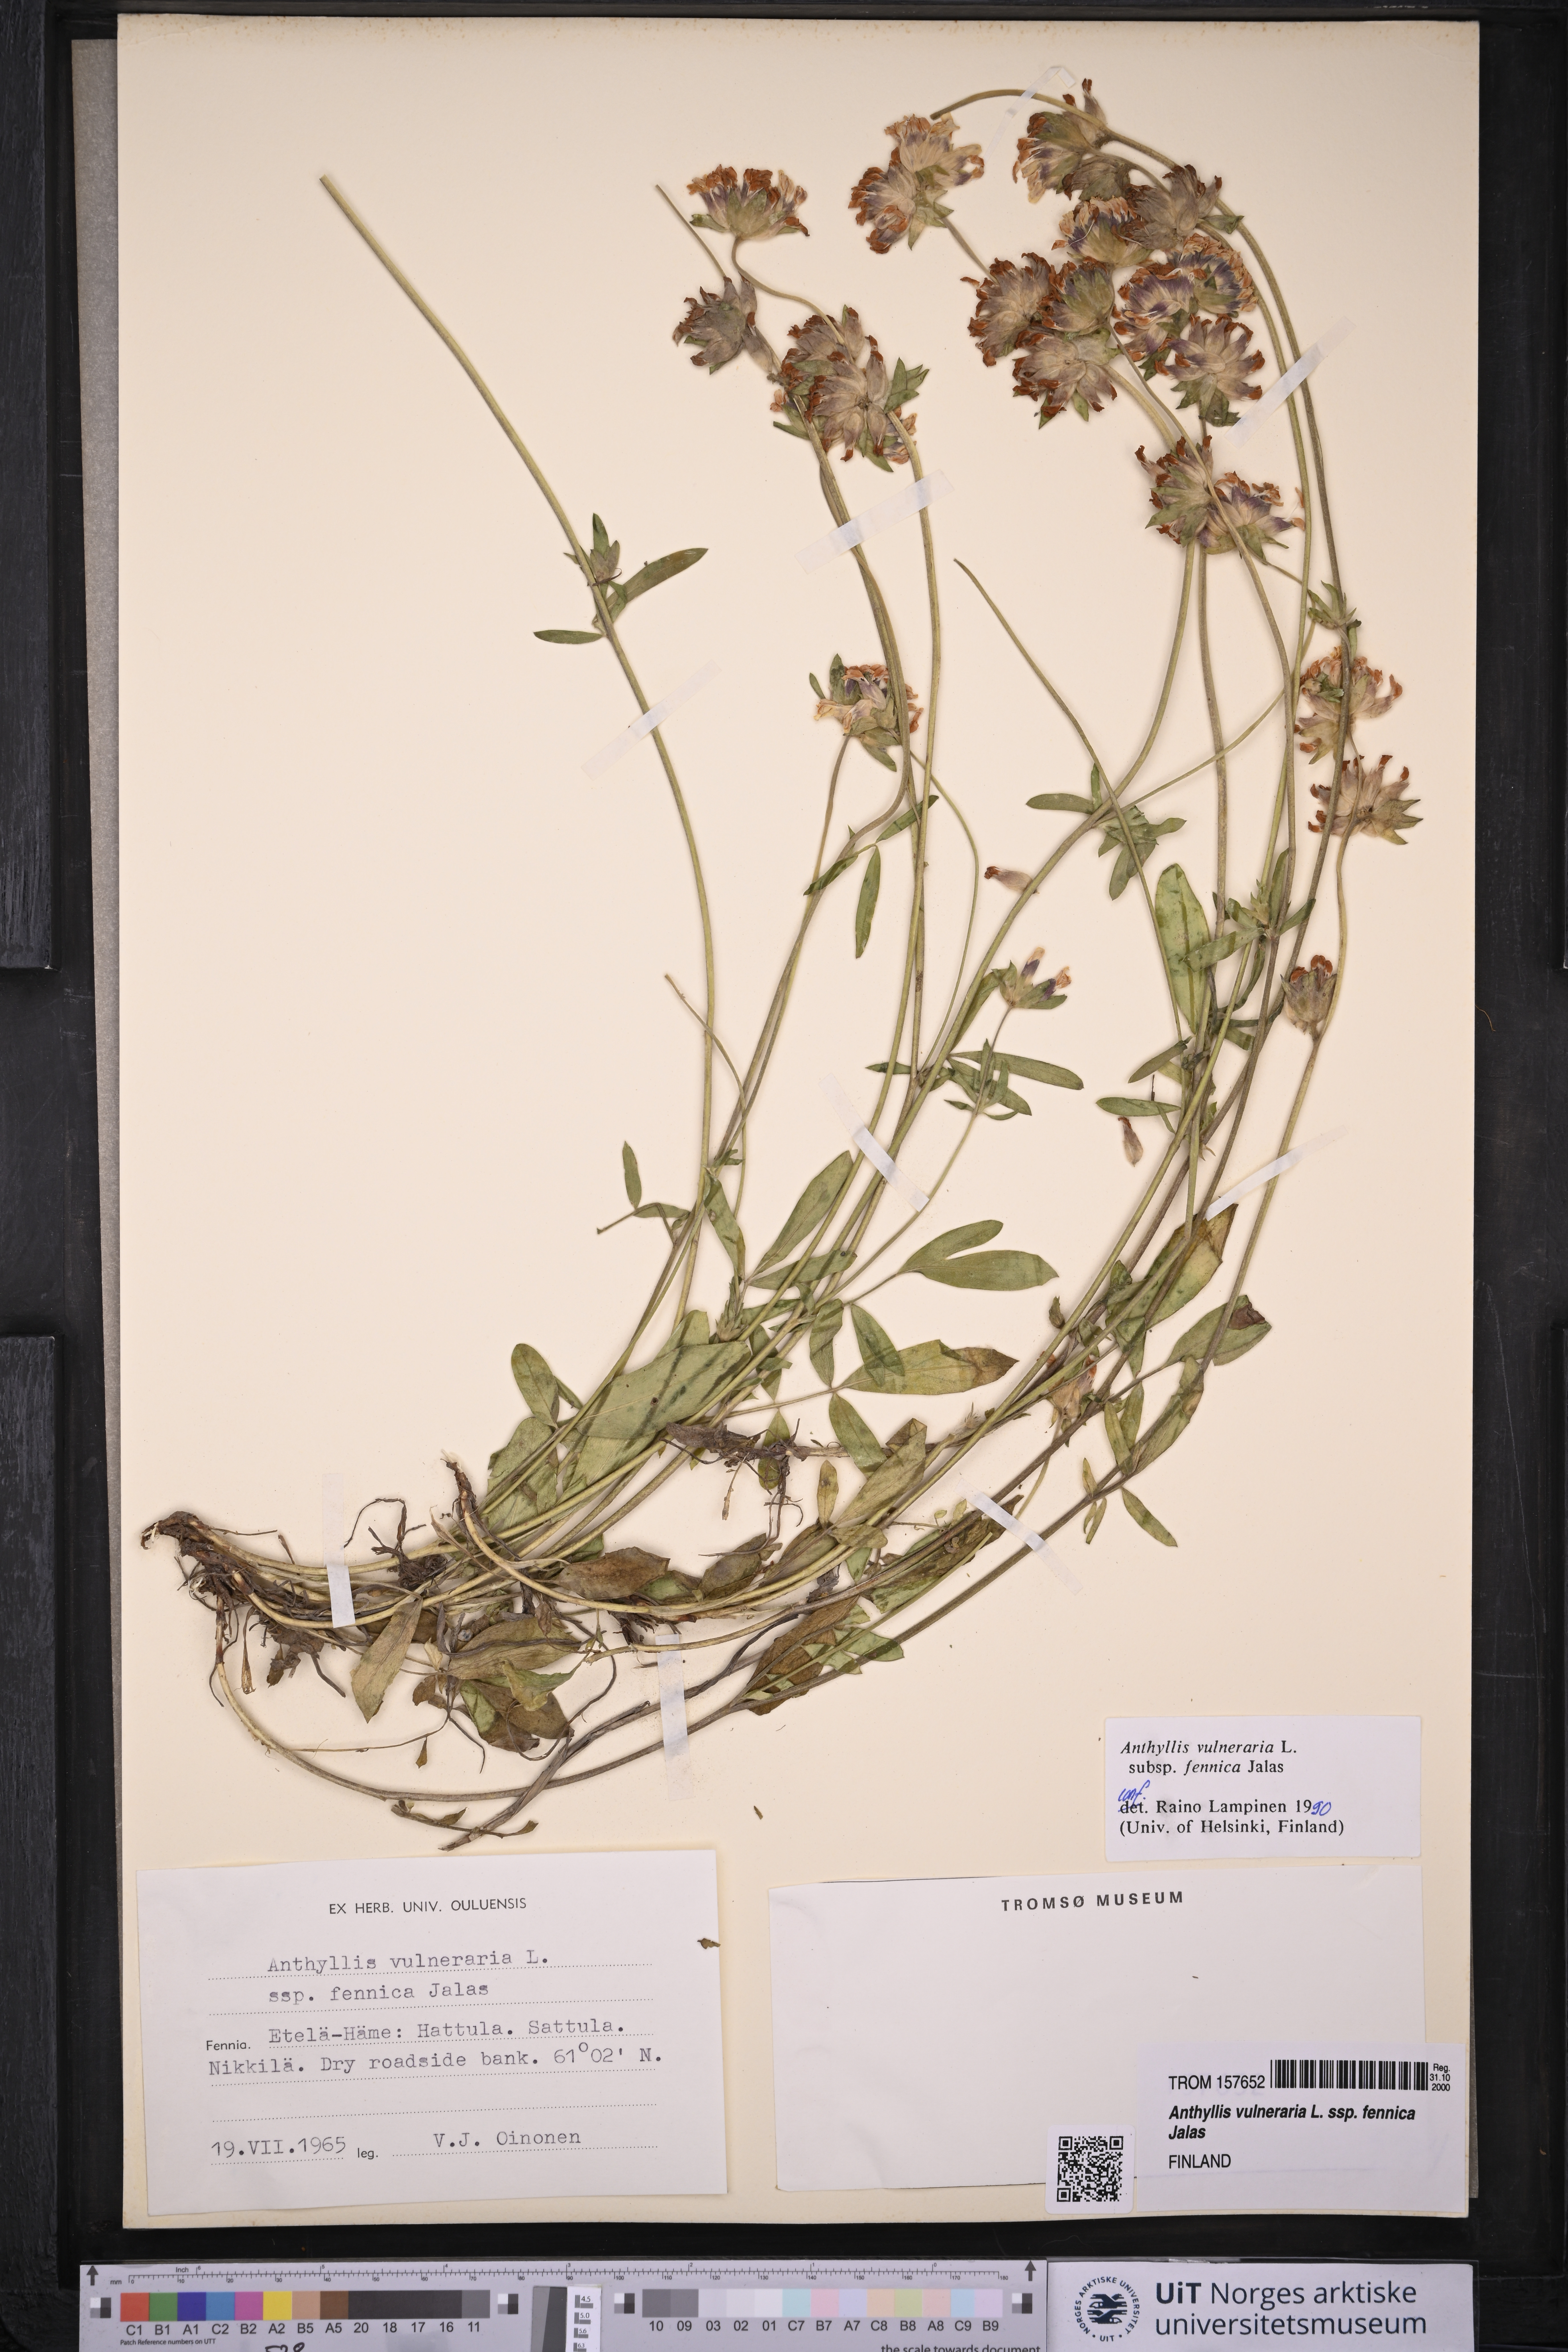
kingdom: Plantae
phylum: Tracheophyta
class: Magnoliopsida
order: Fabales
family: Fabaceae
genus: Anthyllis
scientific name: Anthyllis vulneraria
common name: Kidney vetch
